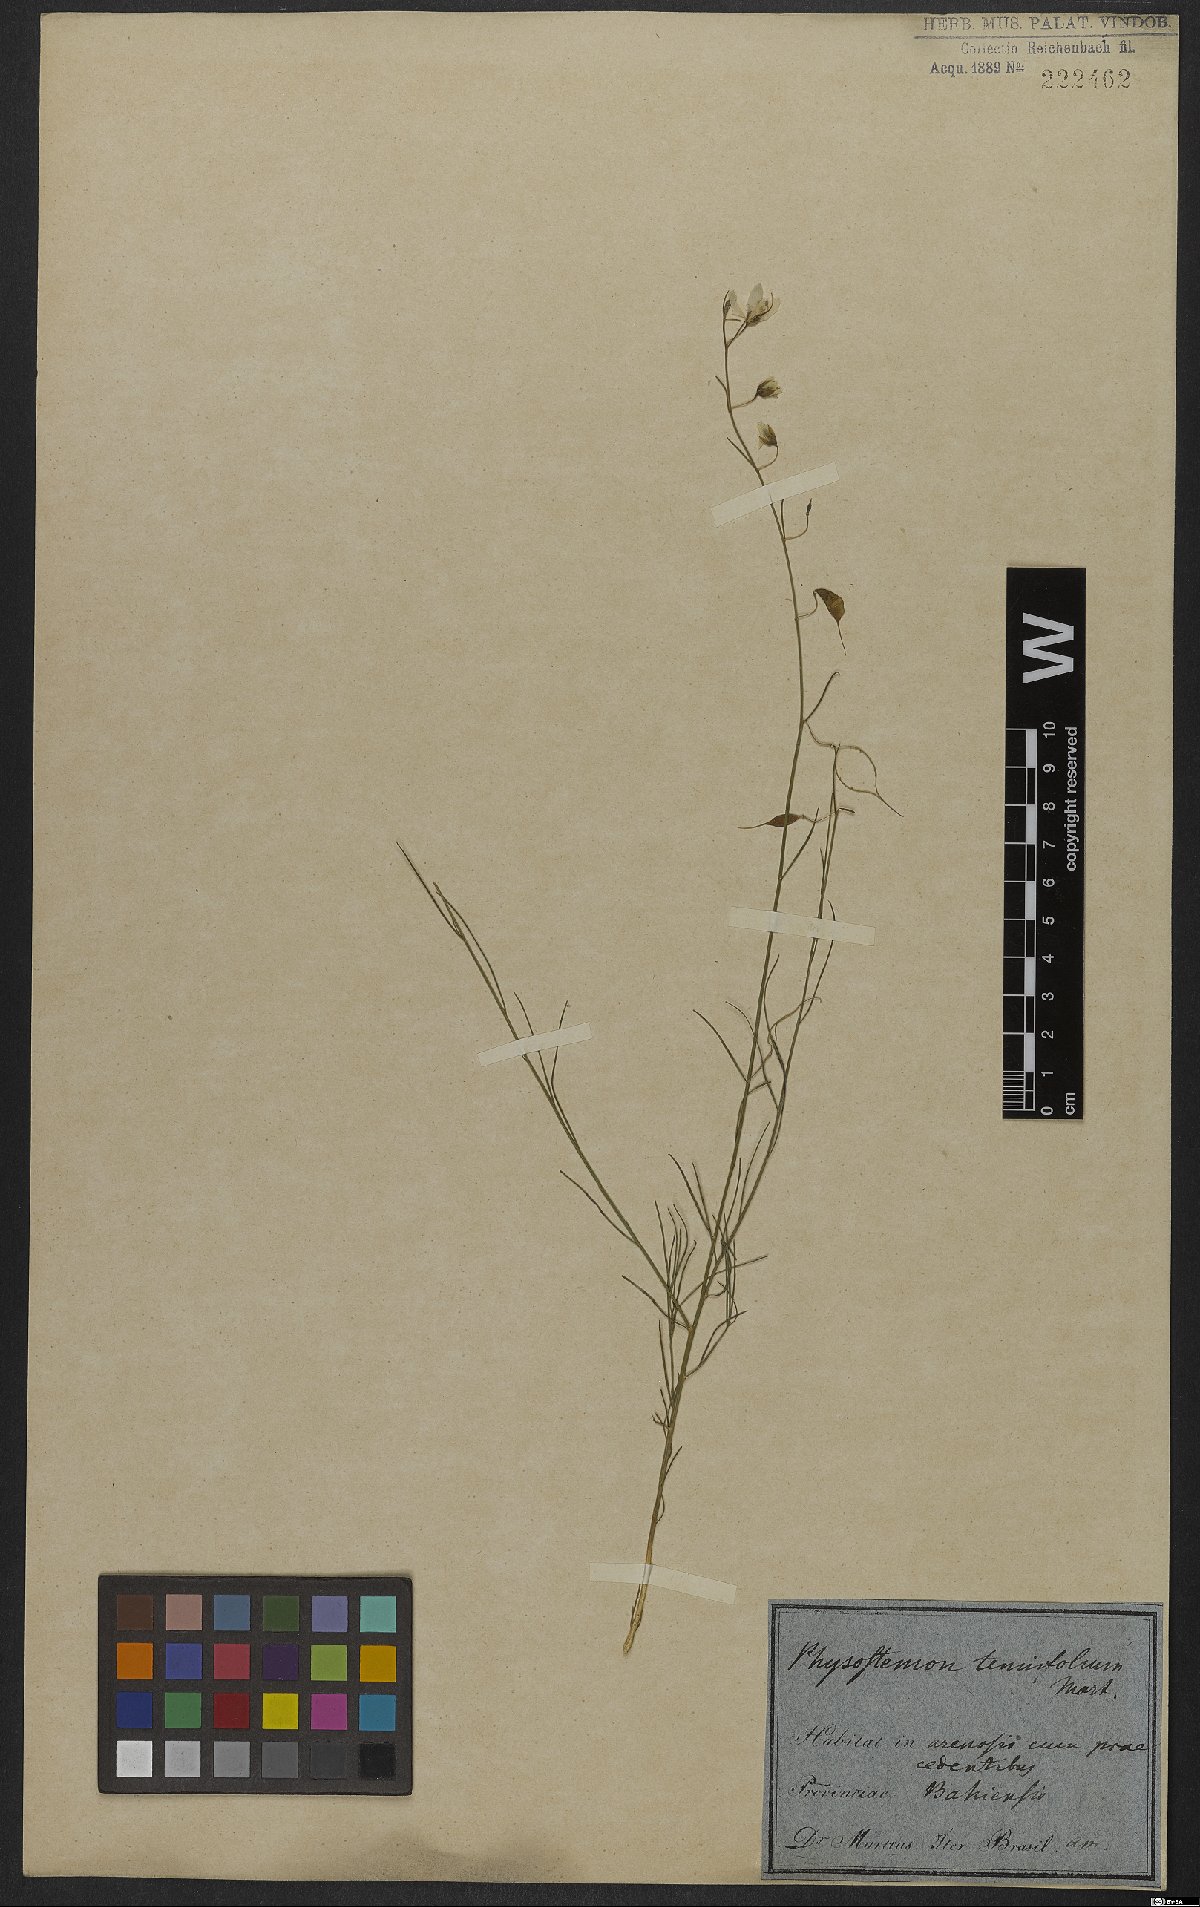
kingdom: Plantae
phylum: Tracheophyta
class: Magnoliopsida
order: Brassicales
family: Cleomaceae
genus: Physostemon
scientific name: Physostemon tenuifolius
